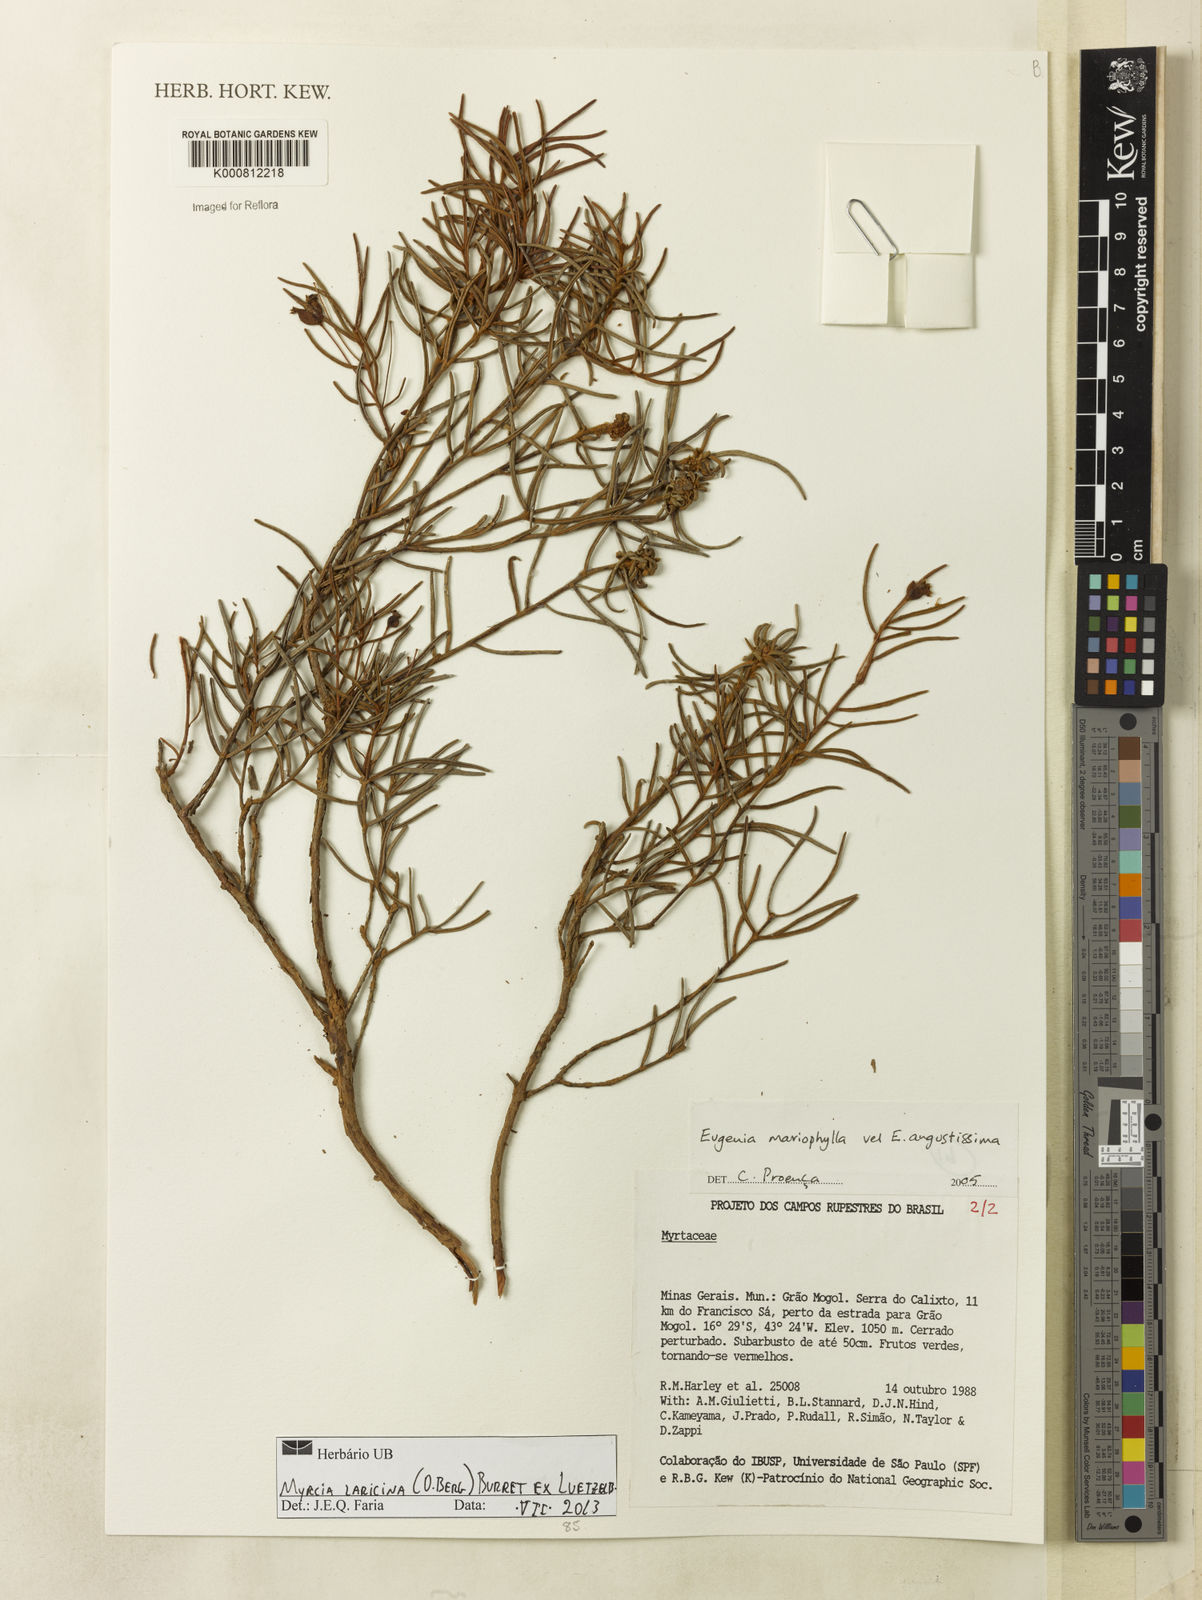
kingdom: Plantae
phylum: Tracheophyta
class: Magnoliopsida
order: Myrtales
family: Myrtaceae
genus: Myrcia
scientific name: Myrcia laricina
